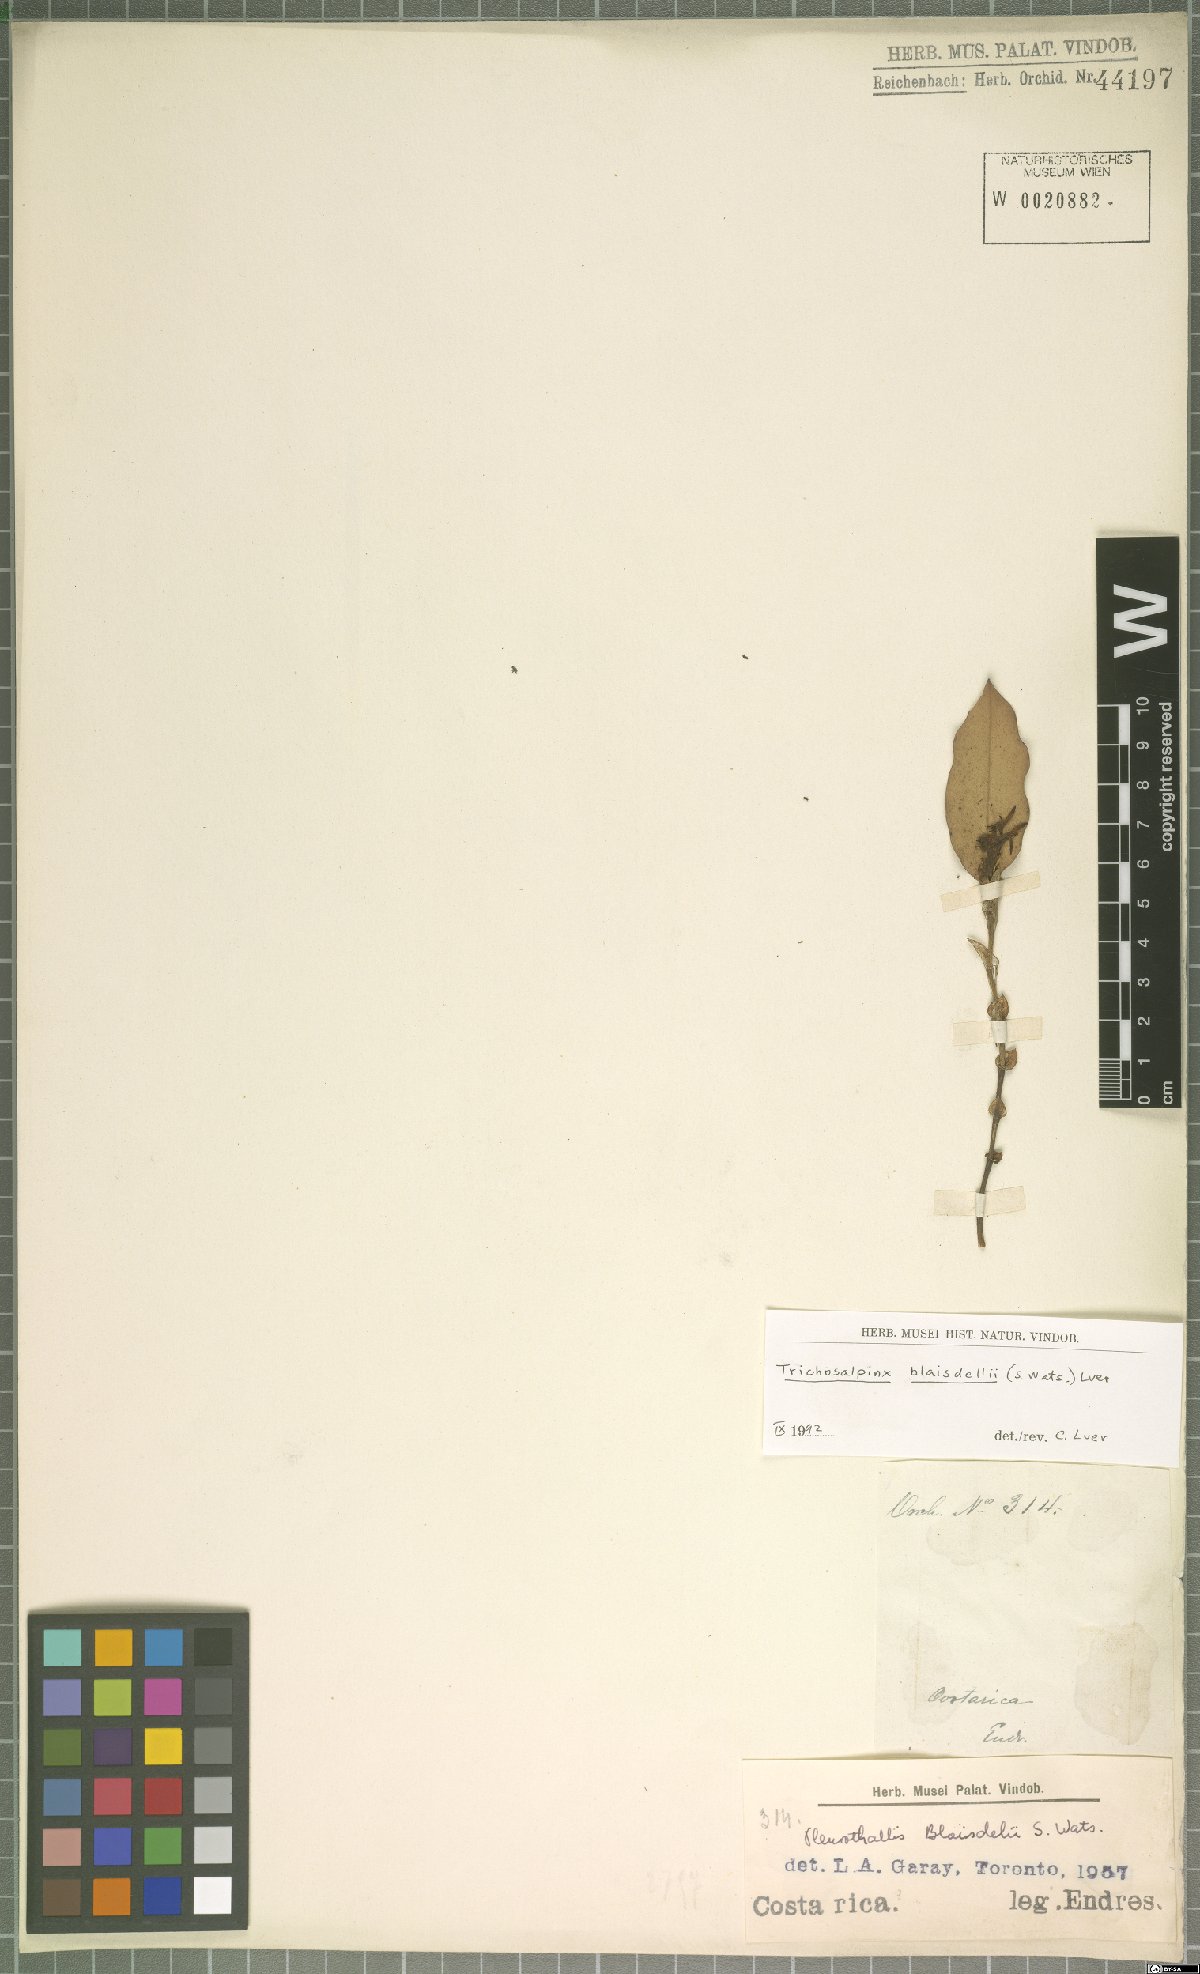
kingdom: Plantae
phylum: Tracheophyta
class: Liliopsida
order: Asparagales
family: Orchidaceae
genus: Trichosalpinx
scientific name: Trichosalpinx blaisdellii
